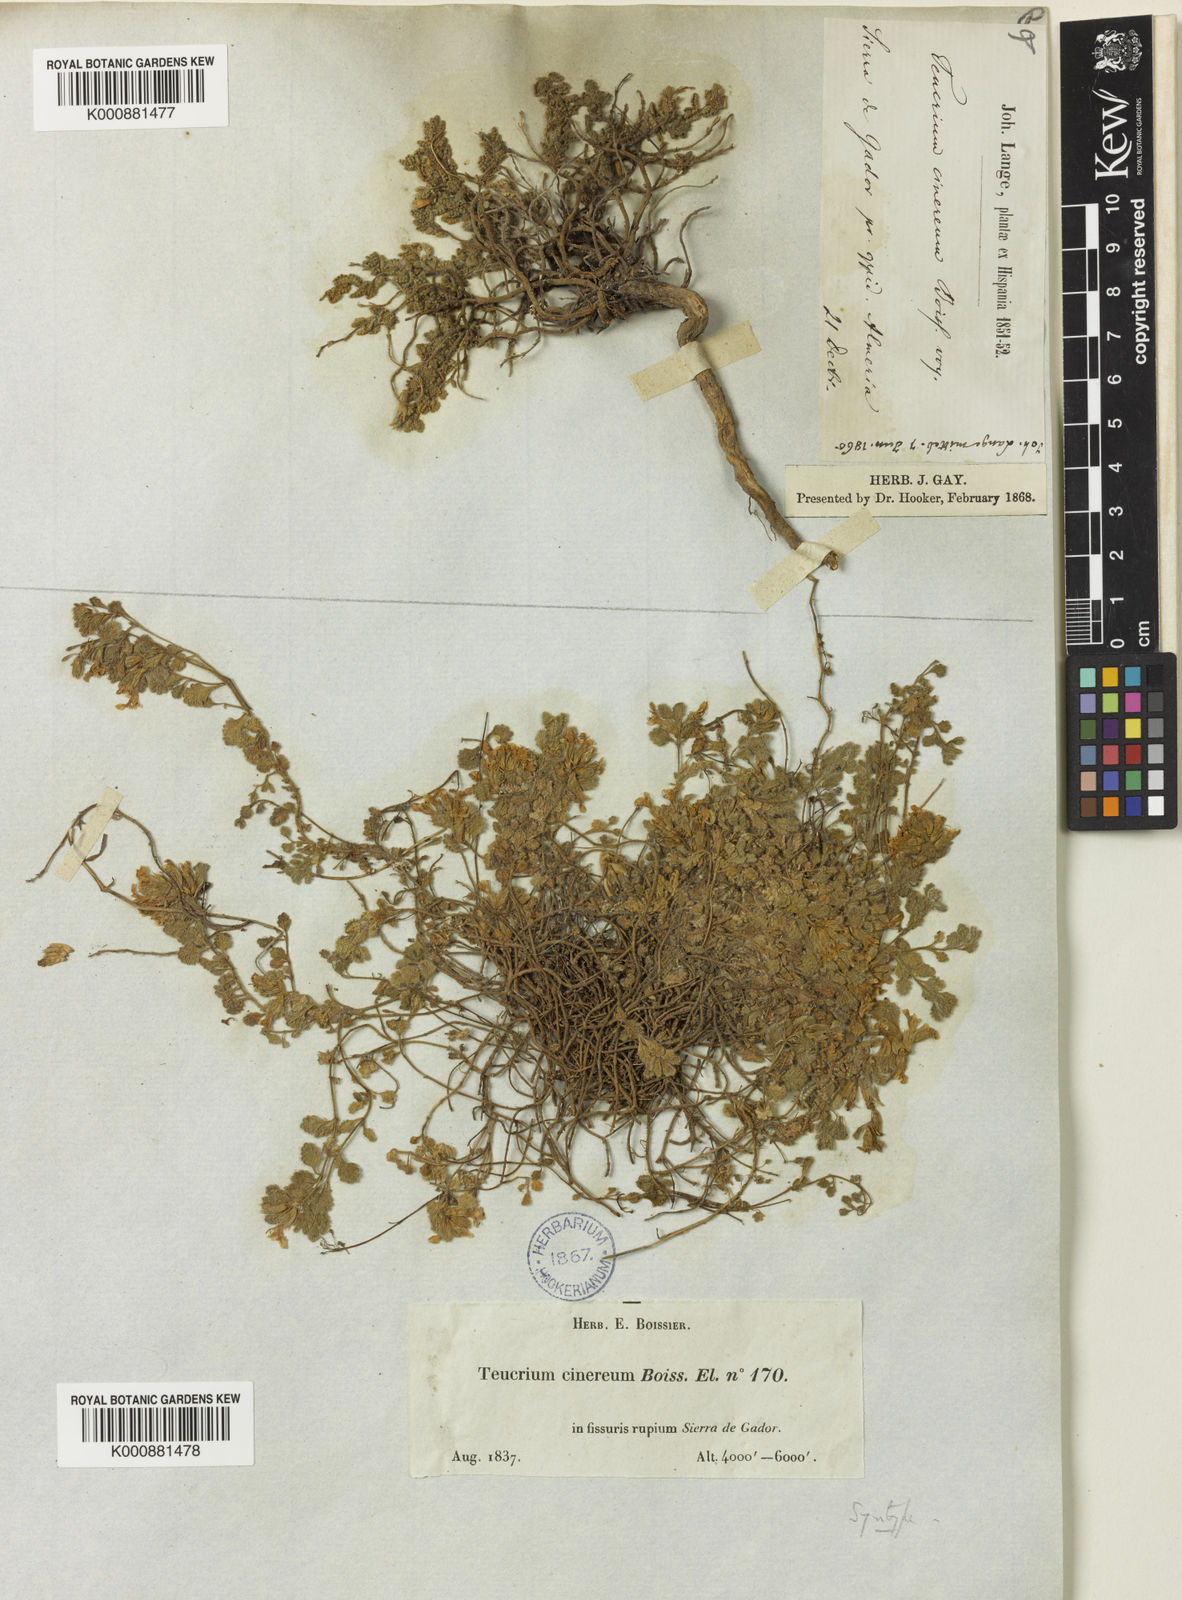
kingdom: Plantae
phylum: Tracheophyta
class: Magnoliopsida
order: Lamiales
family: Lamiaceae
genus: Teucrium
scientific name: Teucrium rotundifolium
